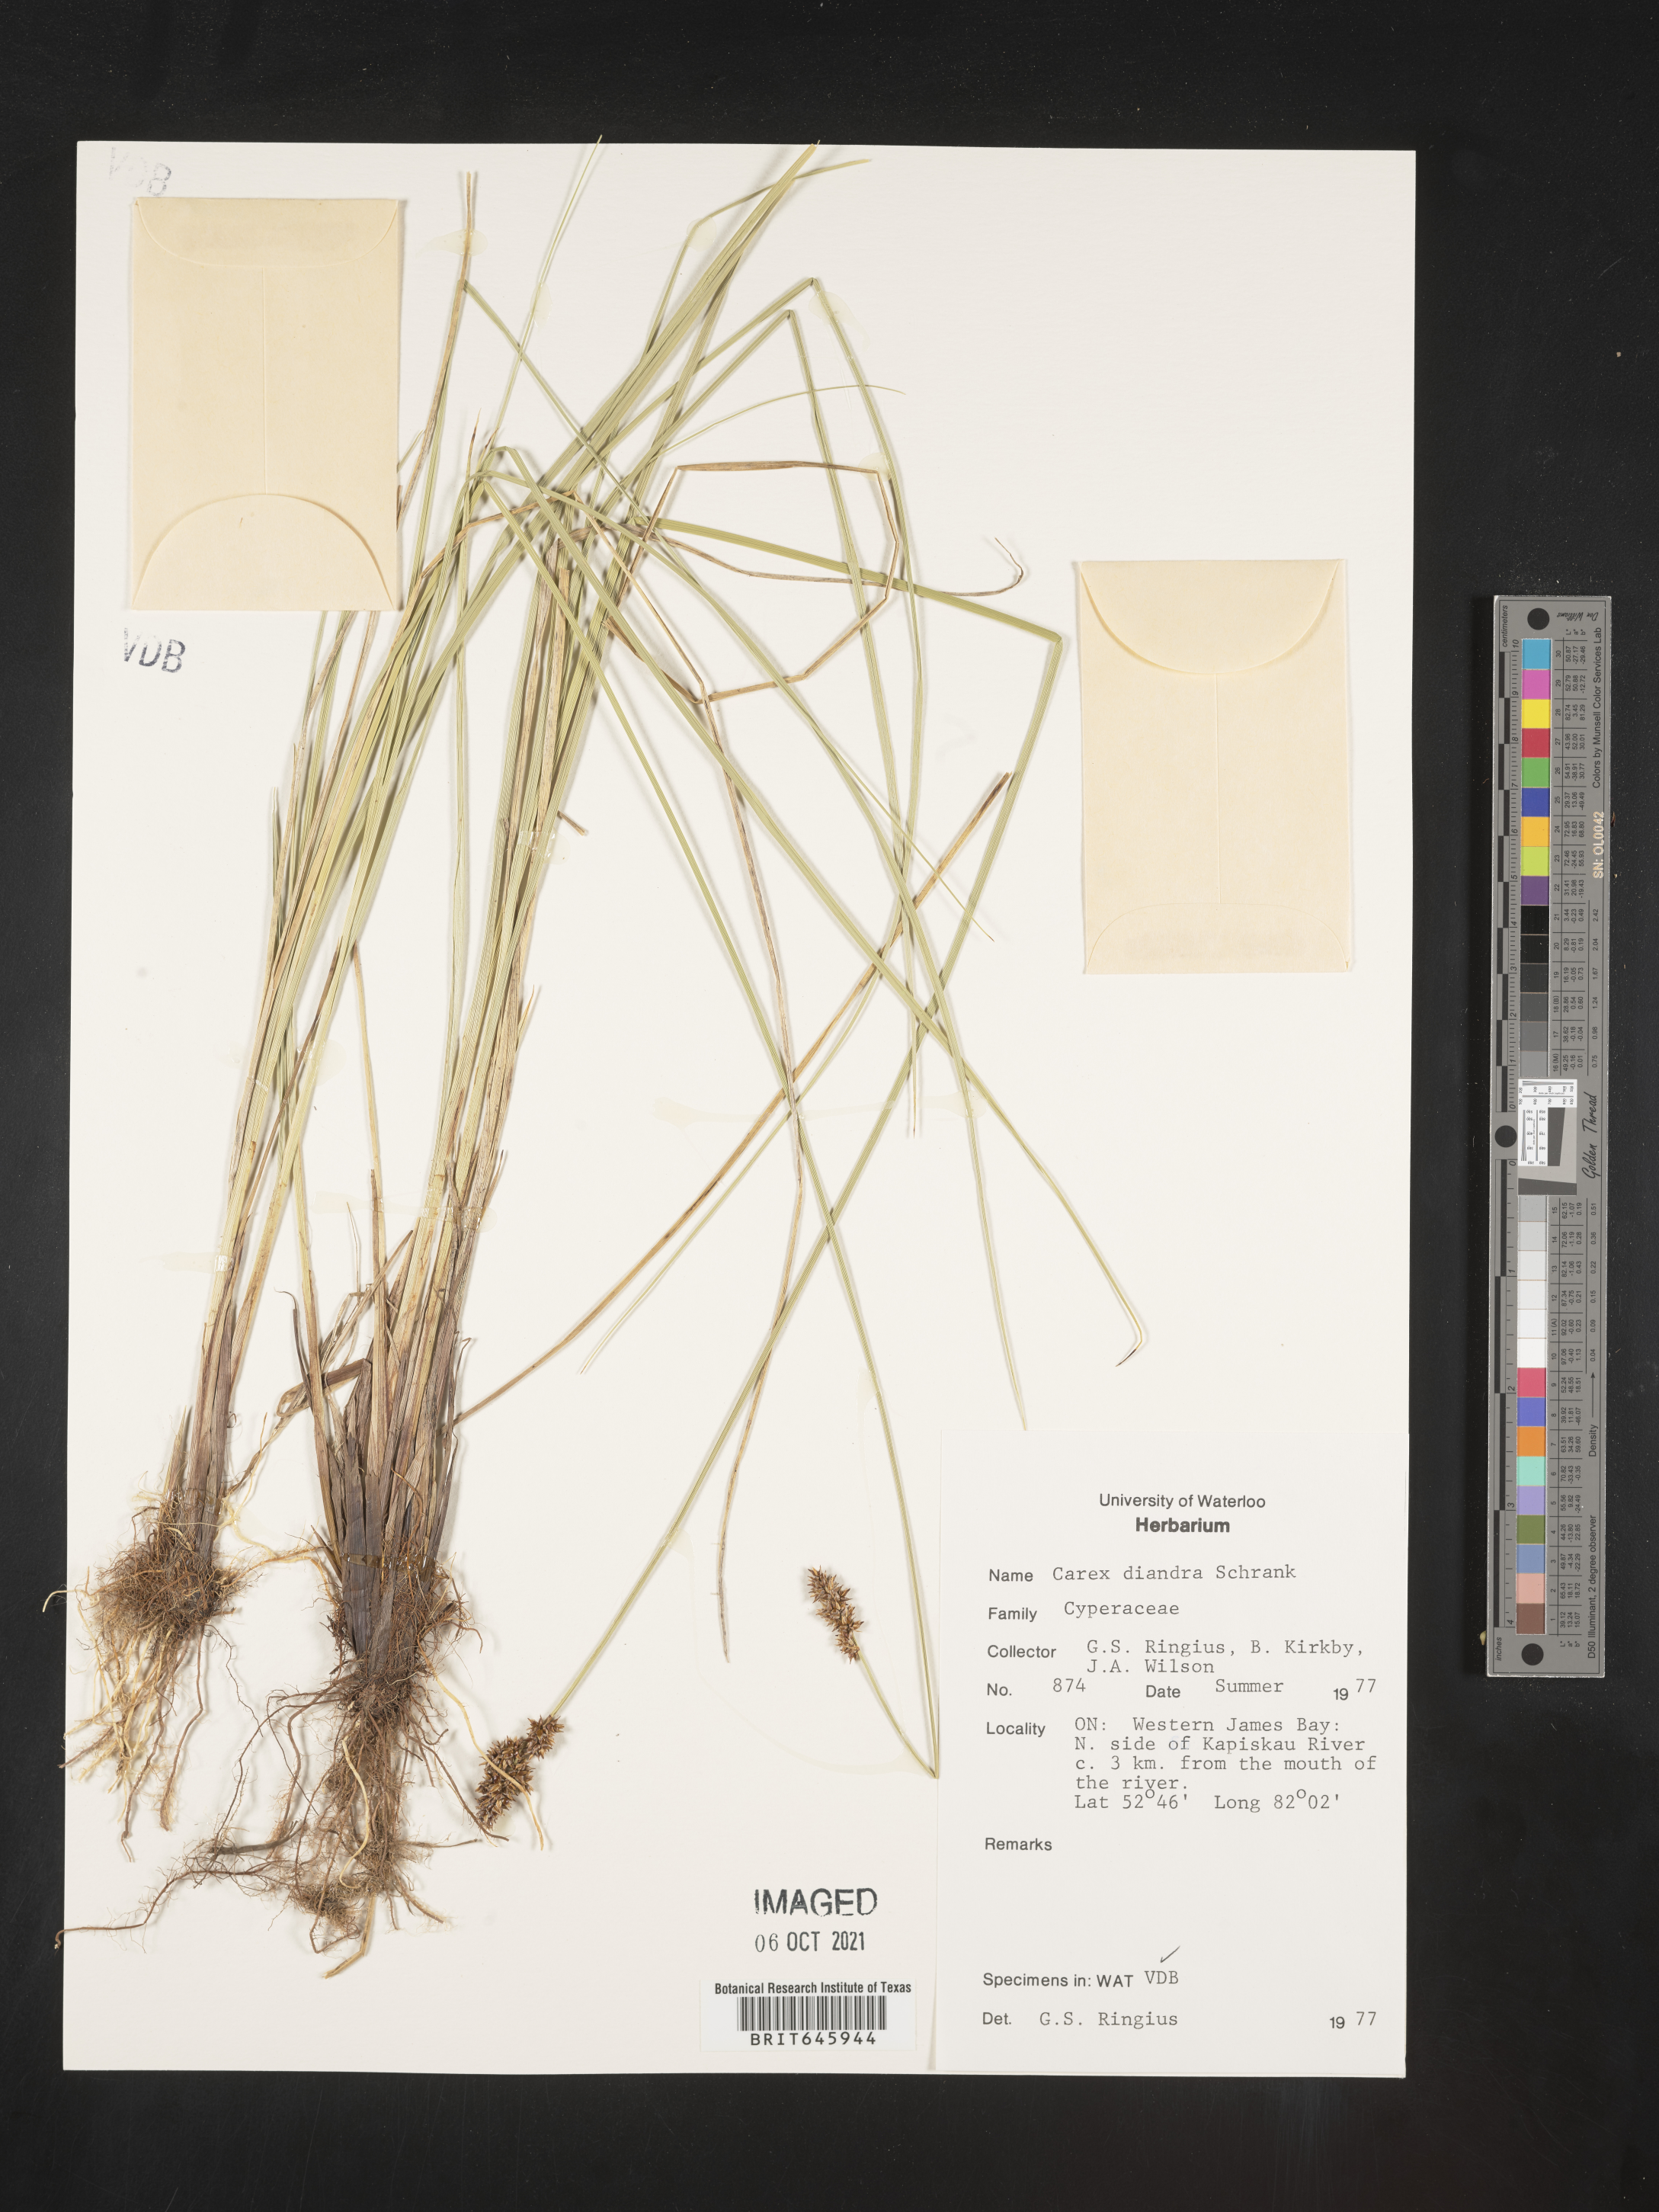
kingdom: Plantae
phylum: Tracheophyta
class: Liliopsida
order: Poales
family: Cyperaceae
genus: Carex
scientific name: Carex diandra
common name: Lesser tussock-sedge
